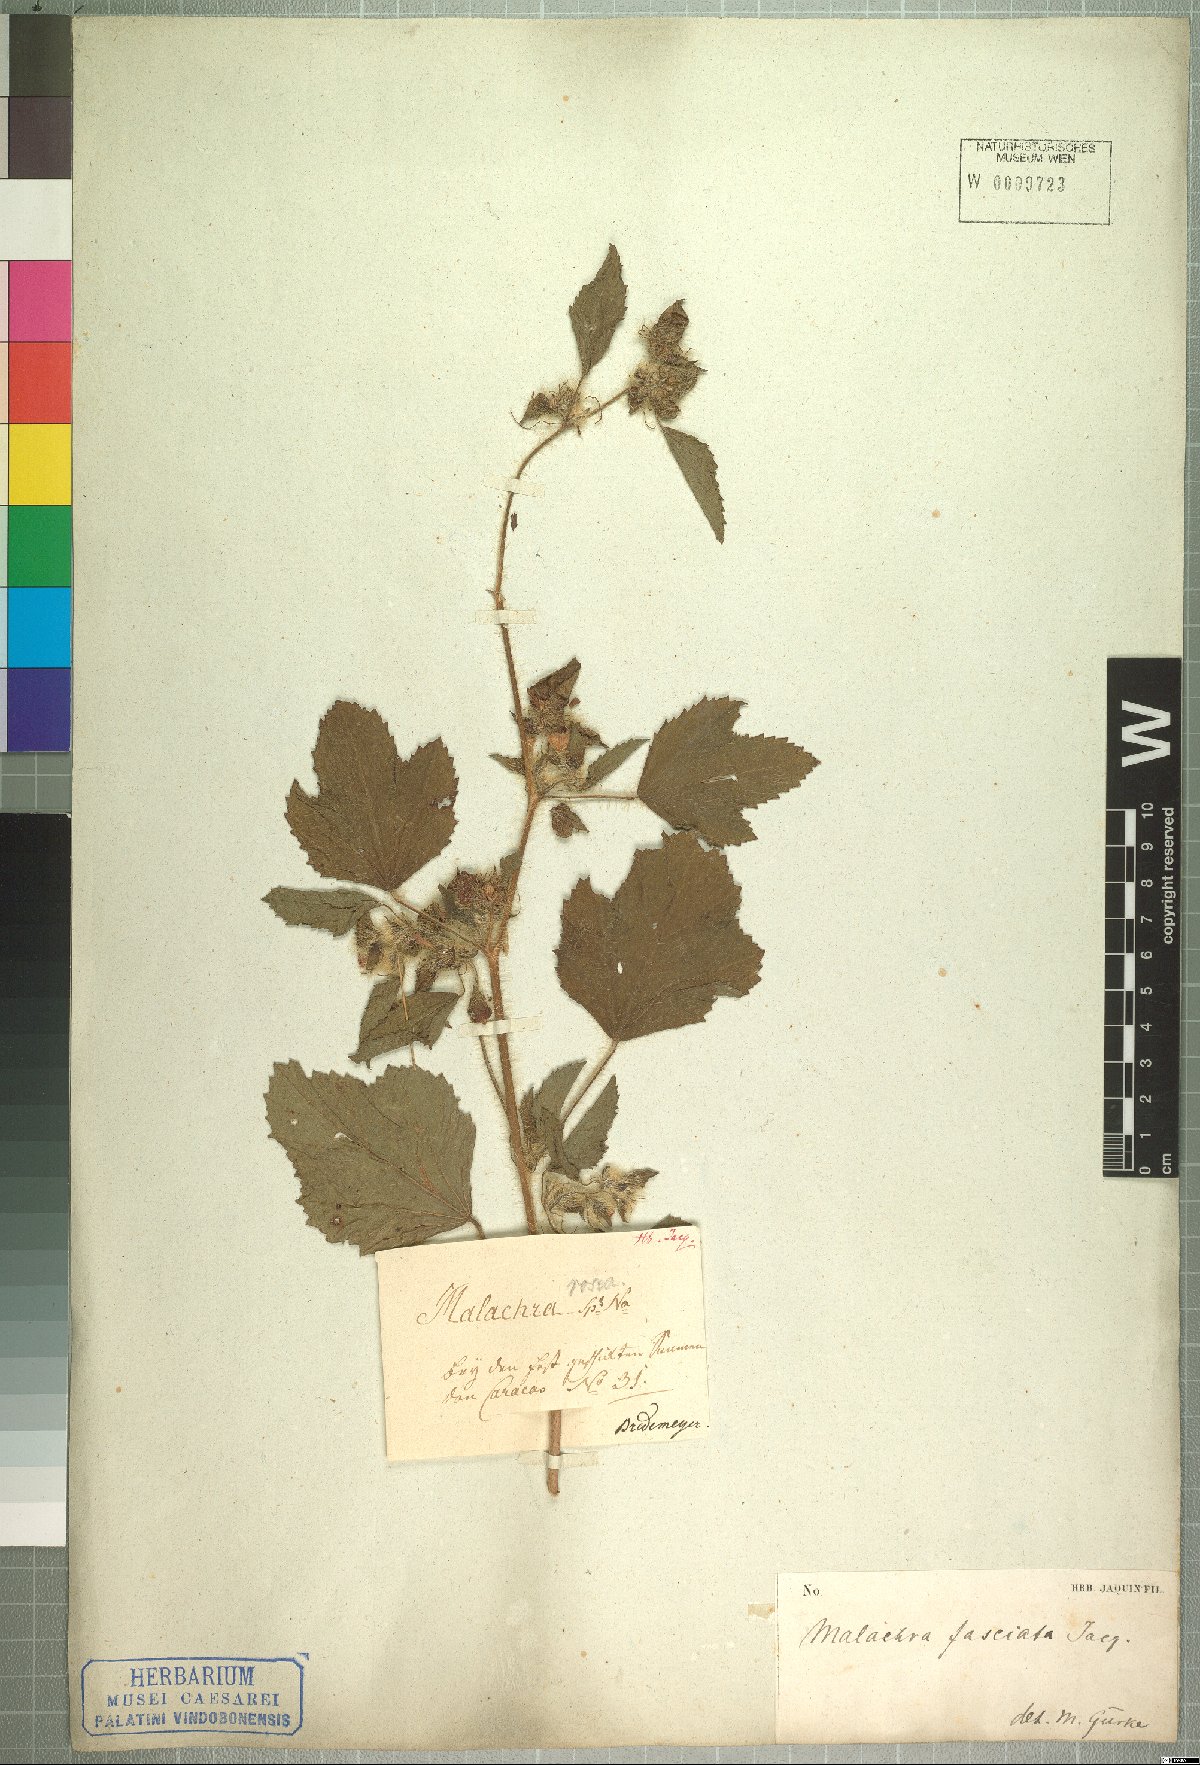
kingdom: Plantae
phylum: Tracheophyta
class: Magnoliopsida
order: Malvales
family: Malvaceae
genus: Malachra
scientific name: Malachra fasciata
